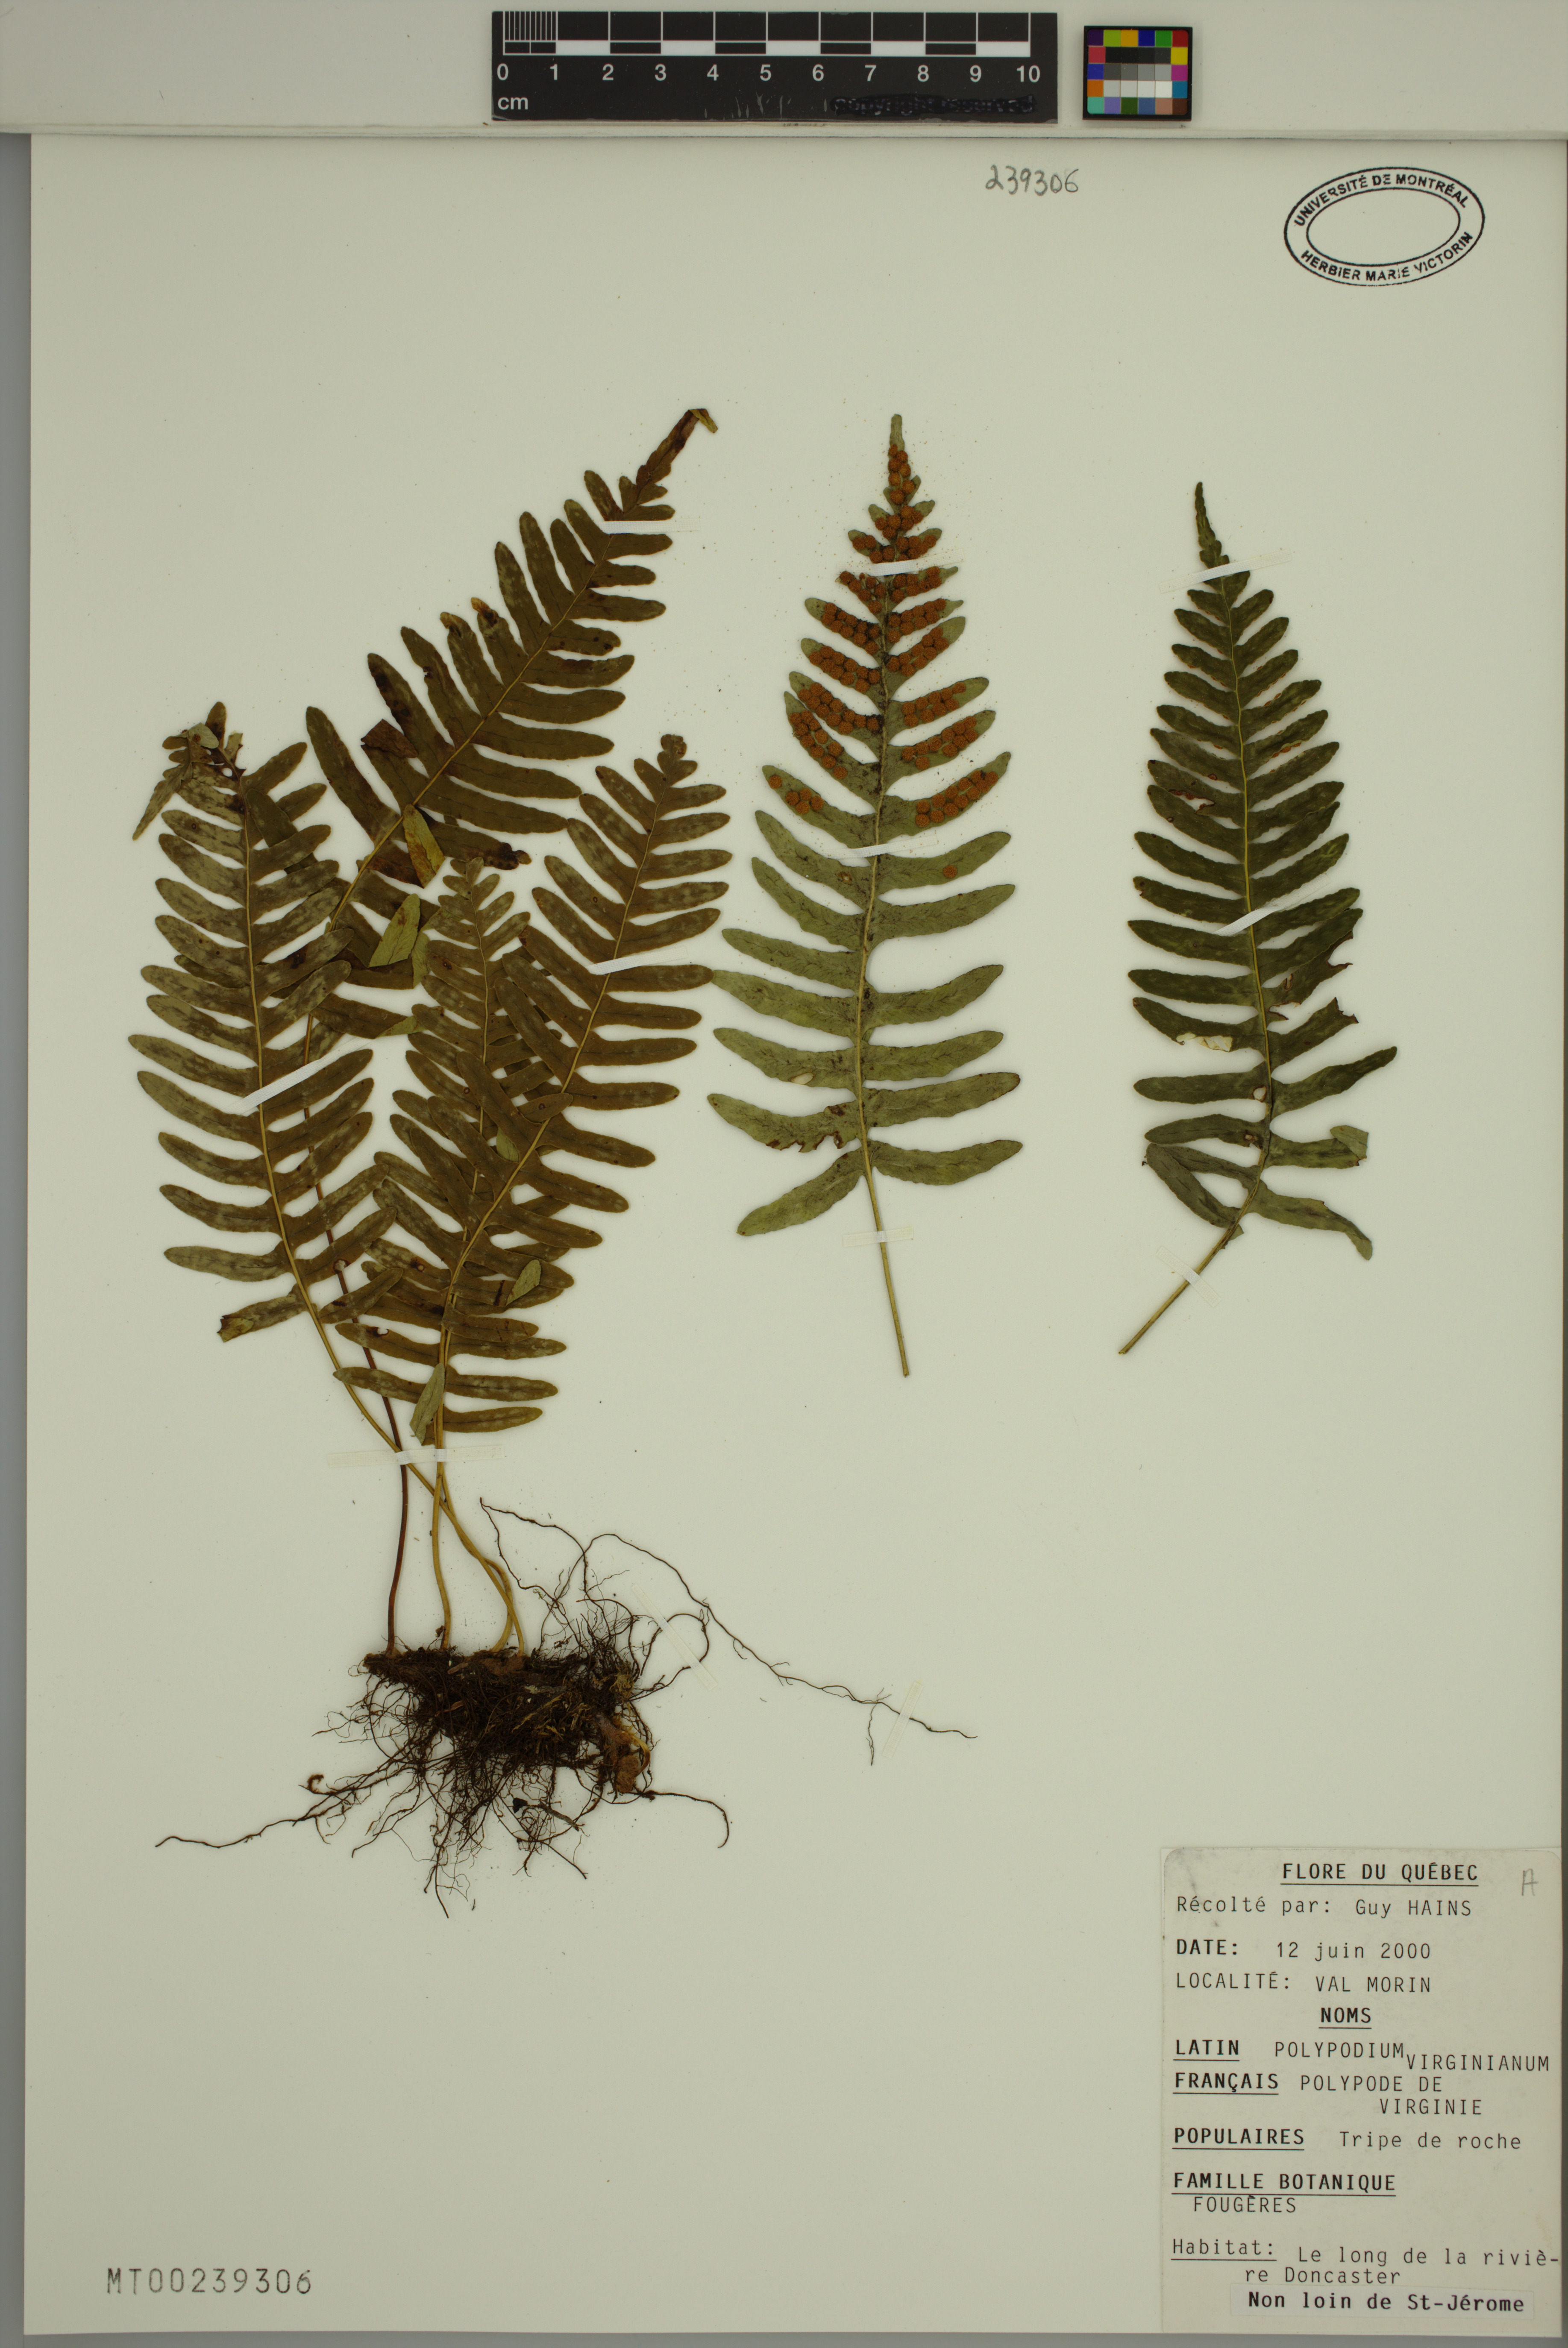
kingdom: Plantae
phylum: Tracheophyta
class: Polypodiopsida
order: Polypodiales
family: Polypodiaceae
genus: Polypodium
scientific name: Polypodium virginianum
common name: American wall fern
